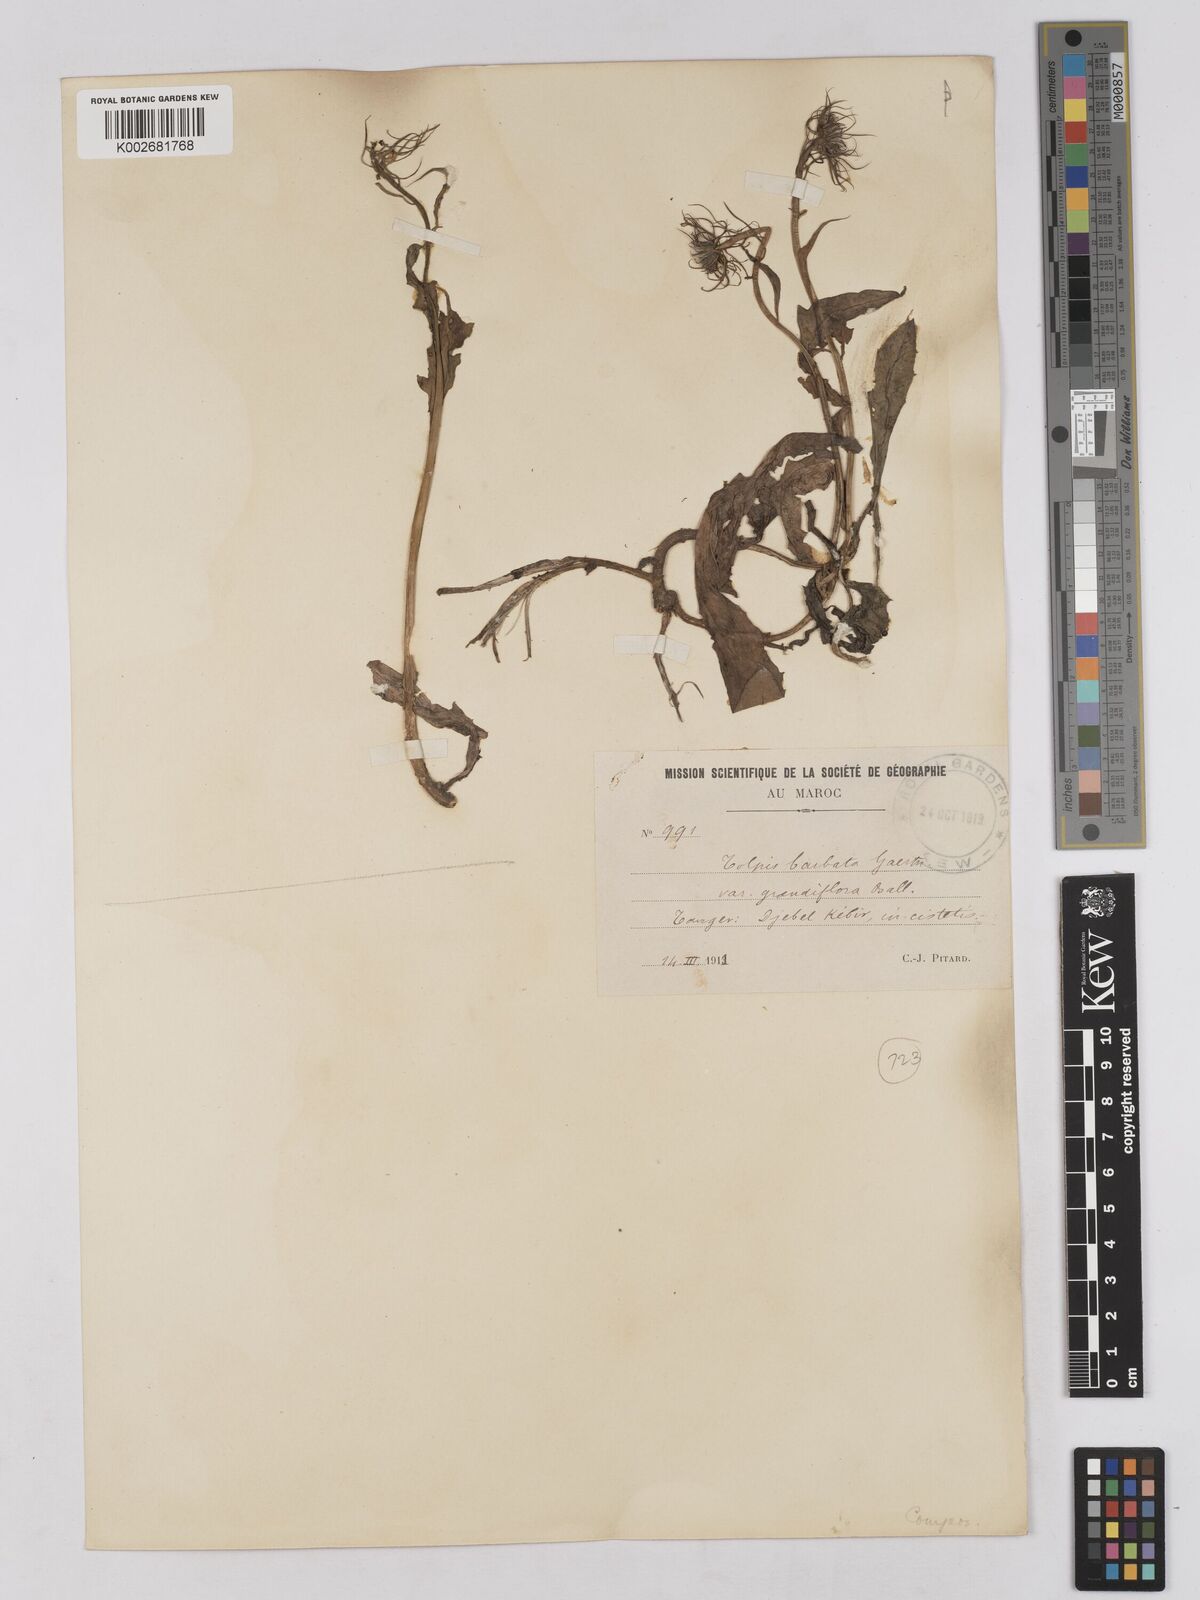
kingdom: Plantae
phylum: Tracheophyta
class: Magnoliopsida
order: Asterales
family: Asteraceae
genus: Tolpis
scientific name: Tolpis barbata
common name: Yellow hawkweed
